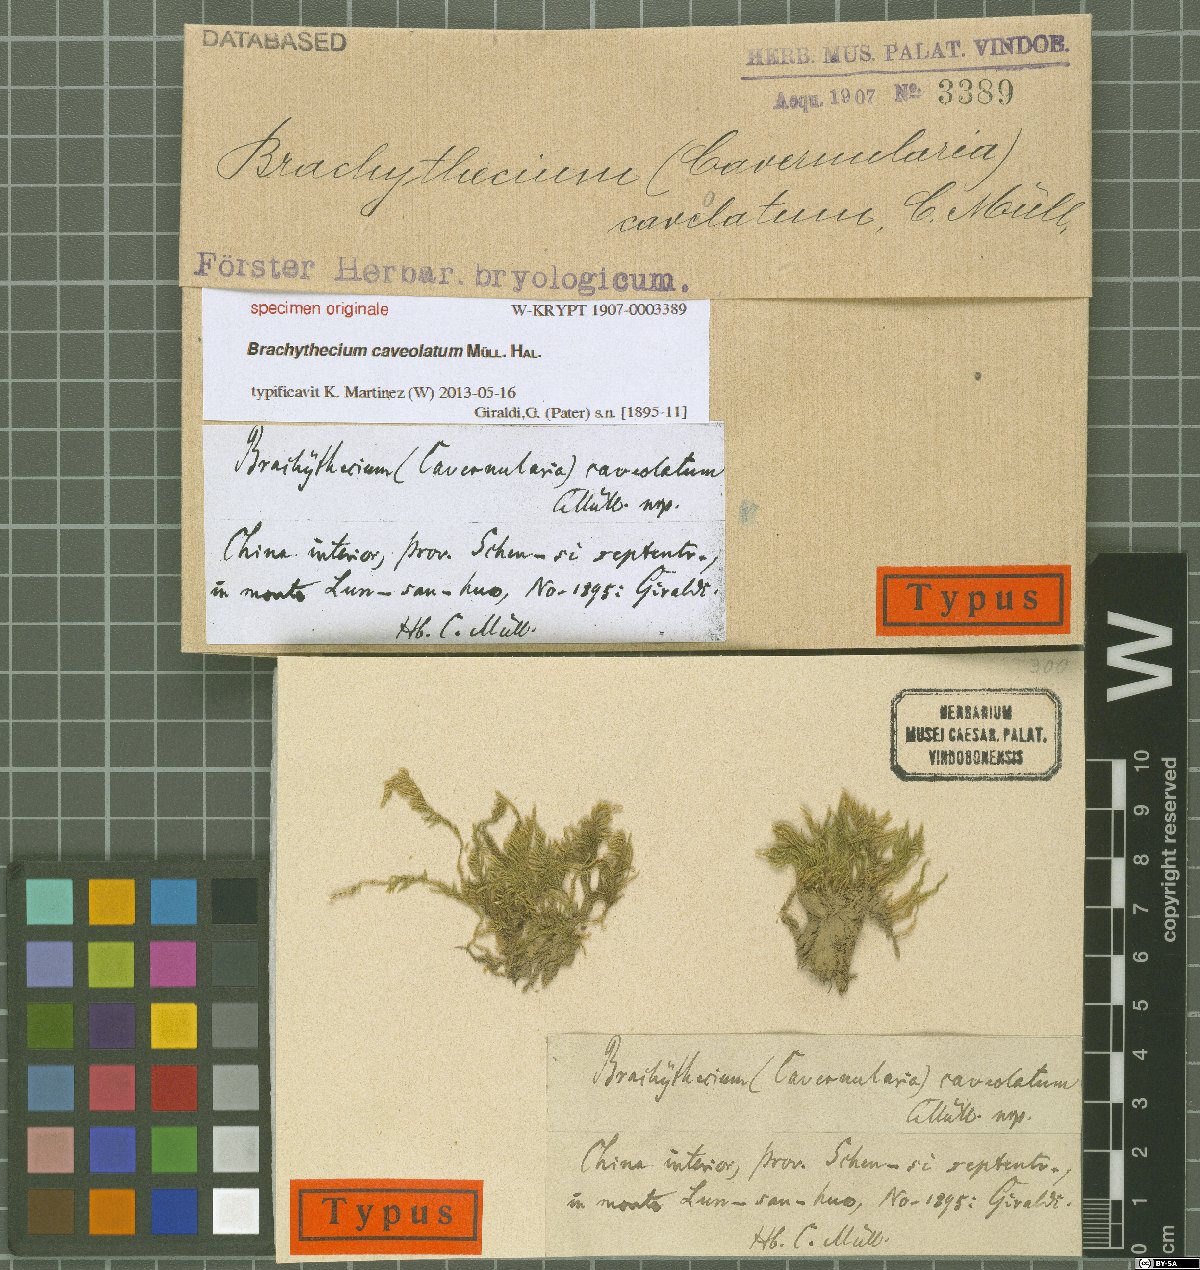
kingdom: Plantae
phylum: Bryophyta
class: Bryopsida
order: Hypnales
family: Brachytheciaceae
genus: Brachythecium
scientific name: Brachythecium
